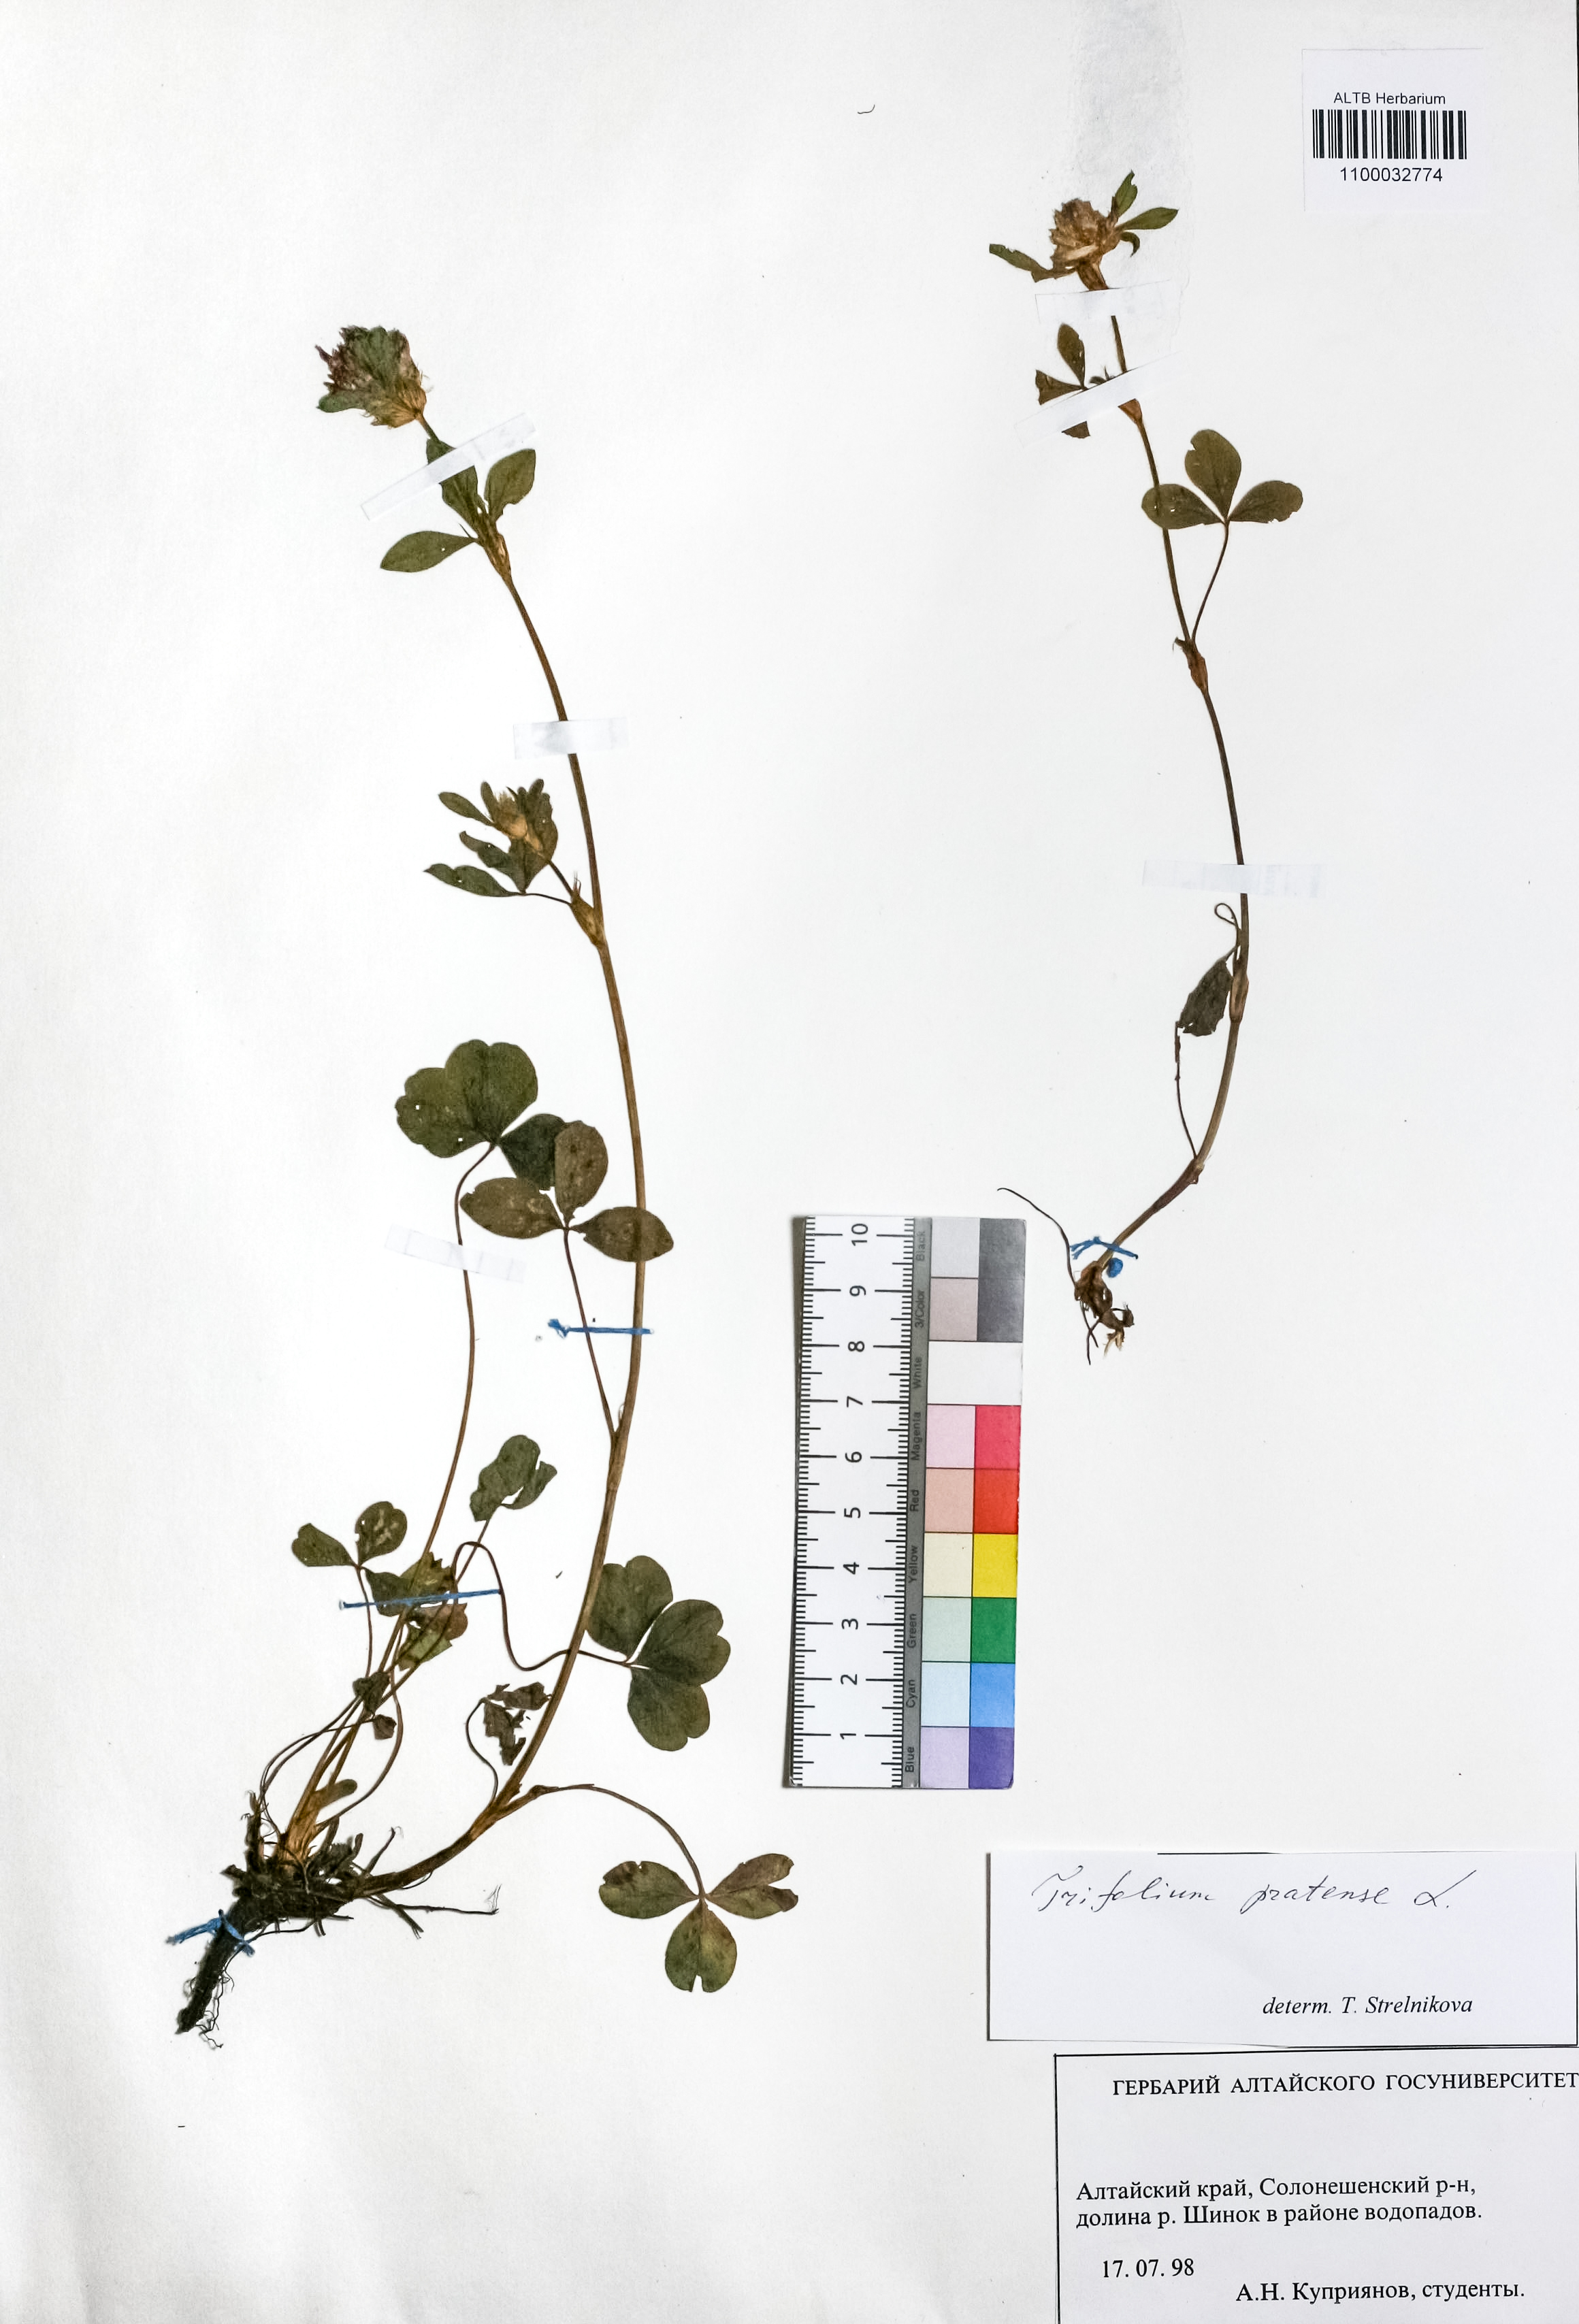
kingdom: Plantae
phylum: Tracheophyta
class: Magnoliopsida
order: Fabales
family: Fabaceae
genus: Trifolium
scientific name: Trifolium pratense
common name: Red clover
